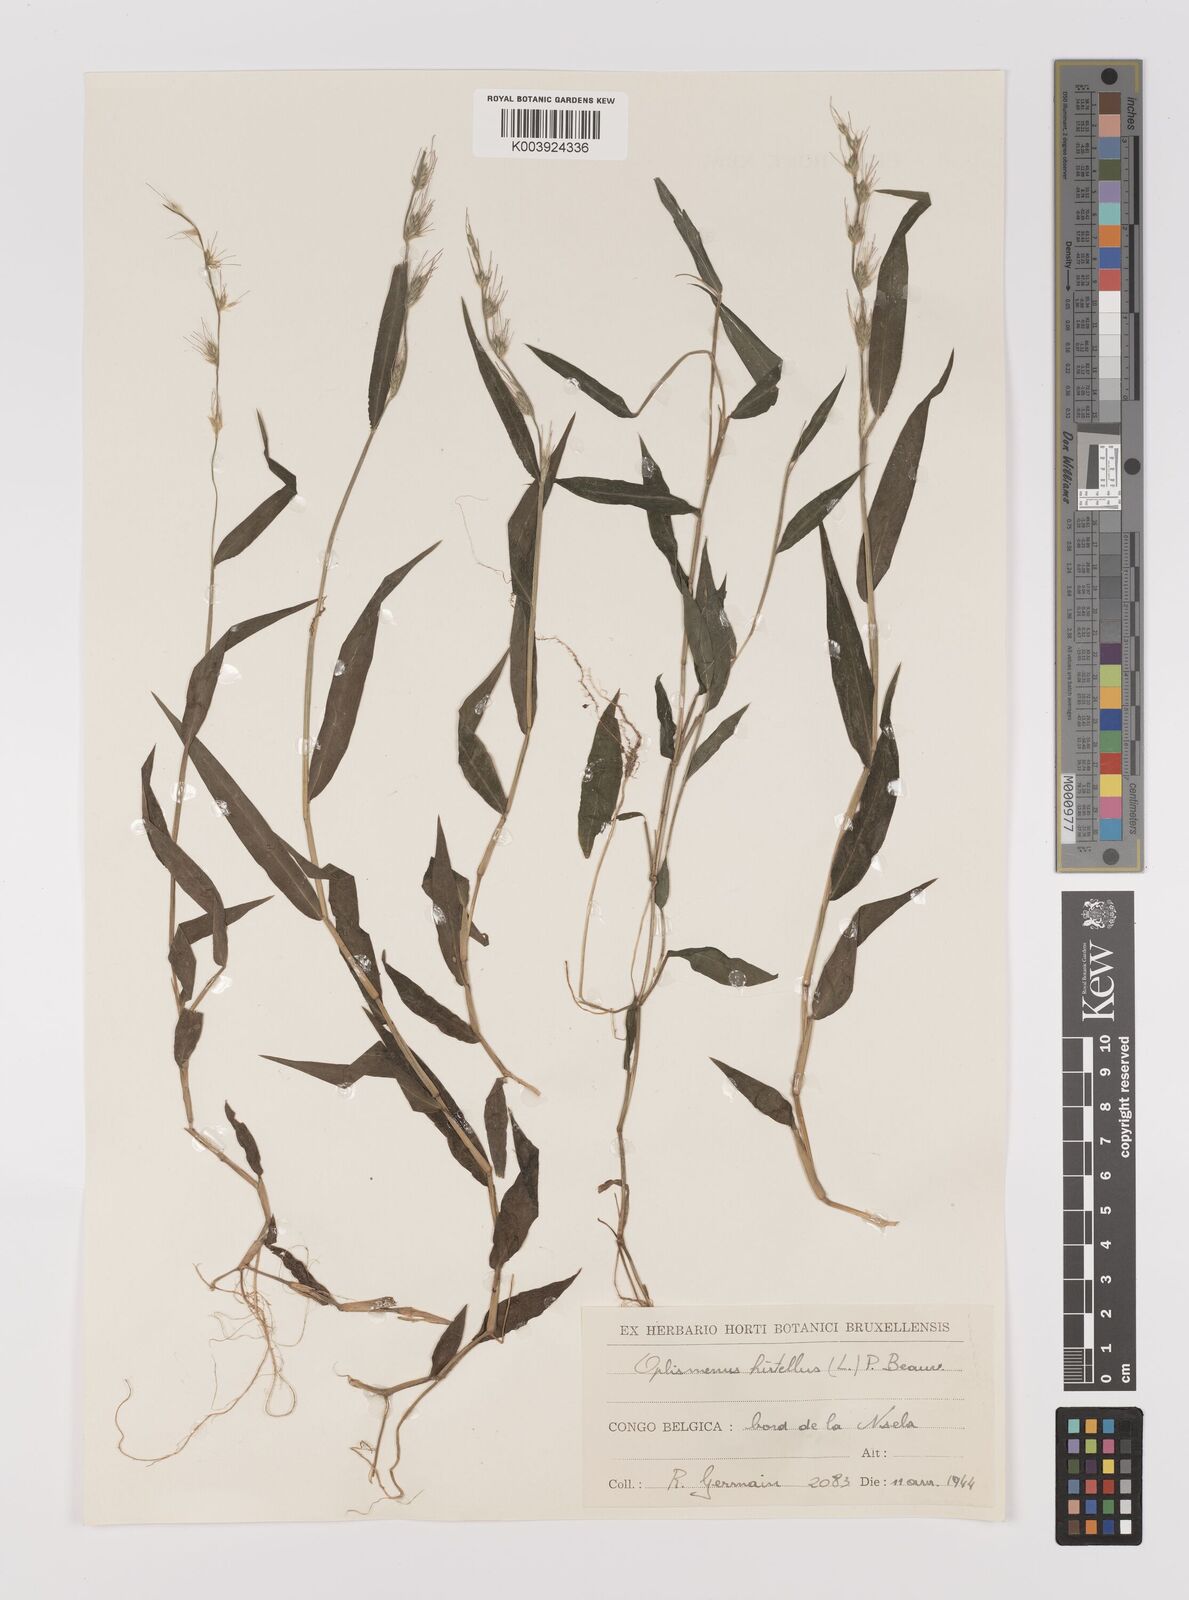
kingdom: Plantae
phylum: Tracheophyta
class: Liliopsida
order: Poales
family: Poaceae
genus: Oplismenus
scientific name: Oplismenus hirtellus
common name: Basketgrass
